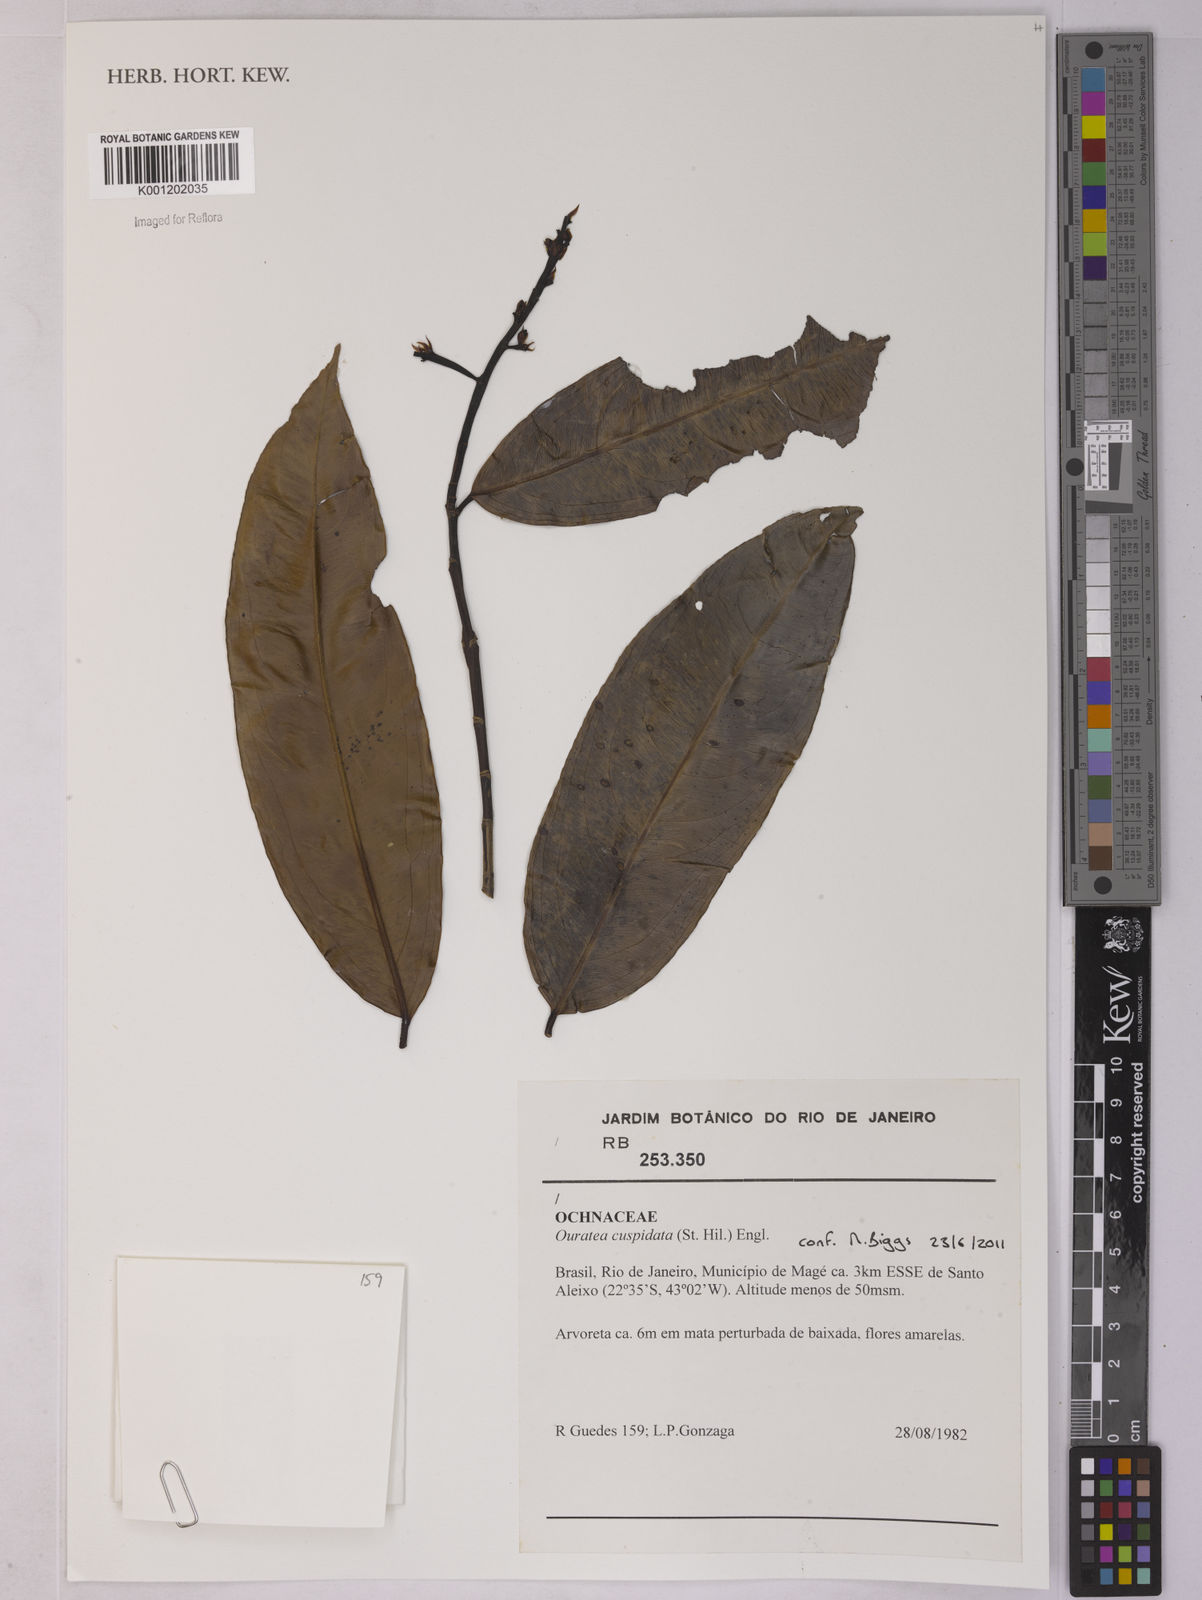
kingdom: Plantae
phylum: Tracheophyta
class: Magnoliopsida
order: Malpighiales
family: Ochnaceae
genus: Ouratea
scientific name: Ouratea cuspidata
